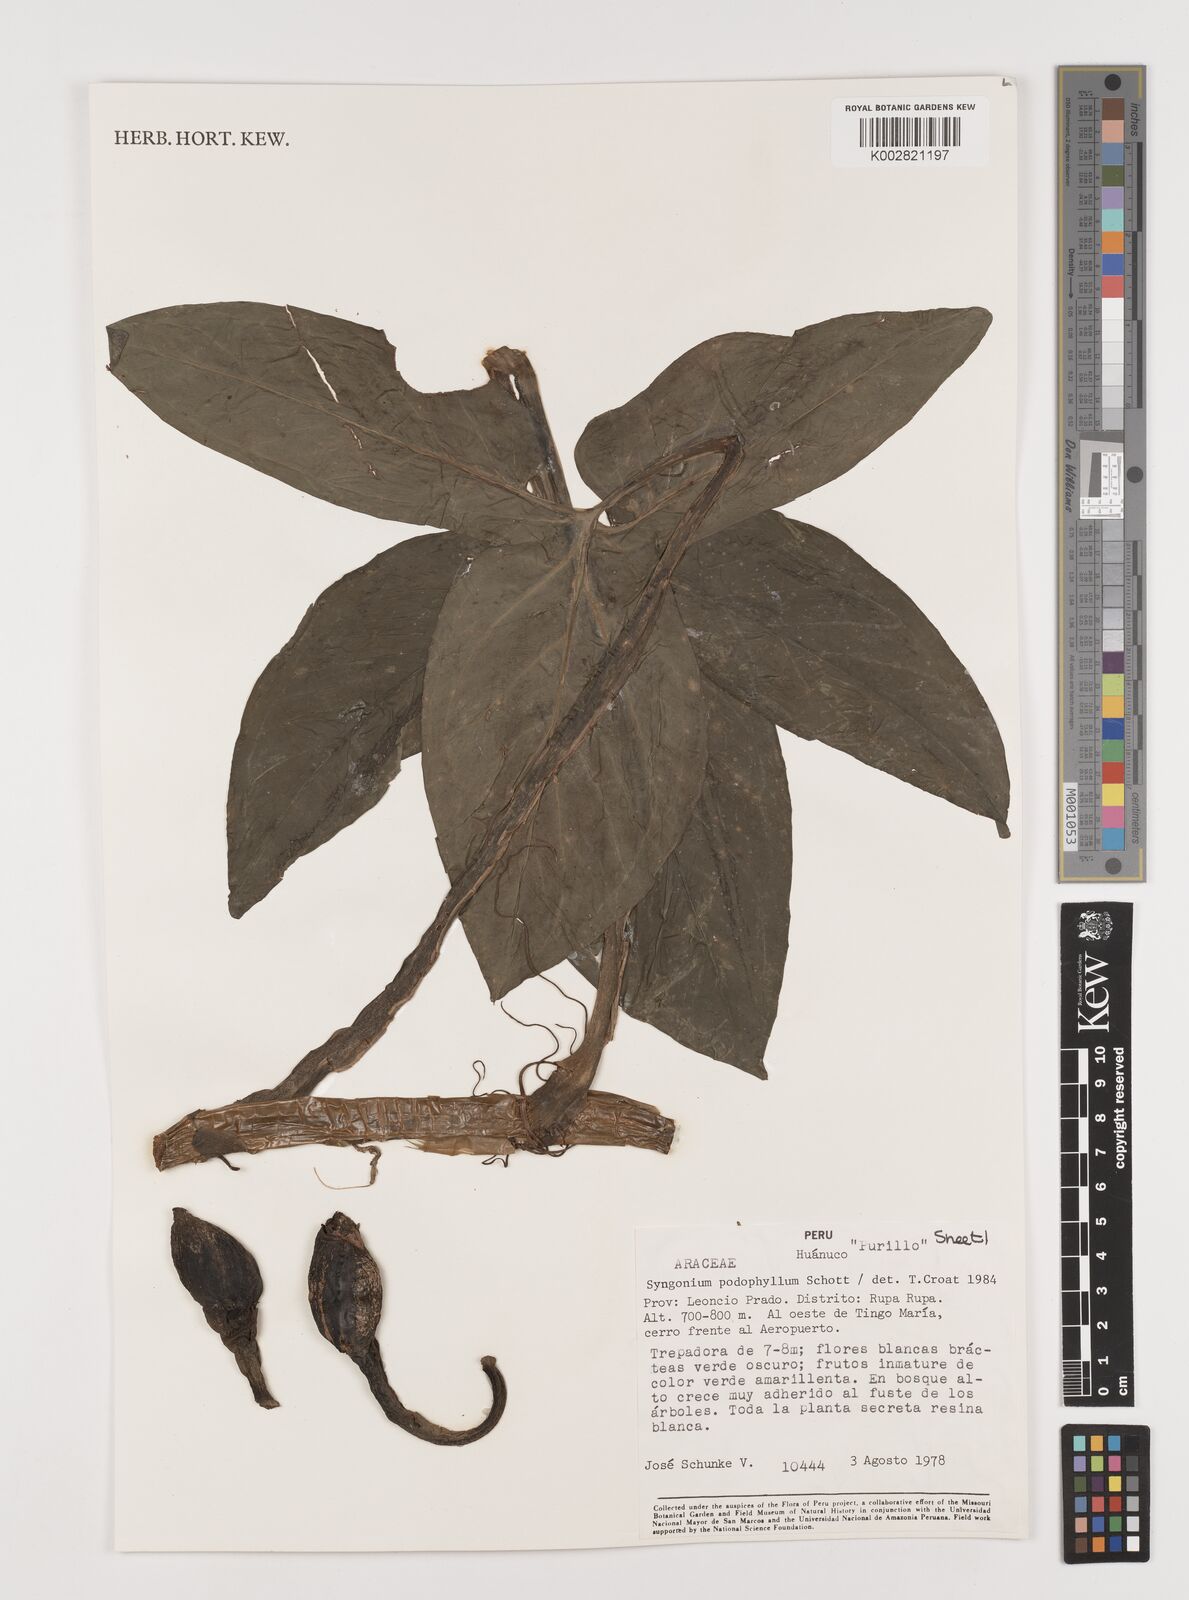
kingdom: Plantae
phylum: Tracheophyta
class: Liliopsida
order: Alismatales
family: Araceae
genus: Syngonium
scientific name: Syngonium podophyllum
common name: American evergreen
